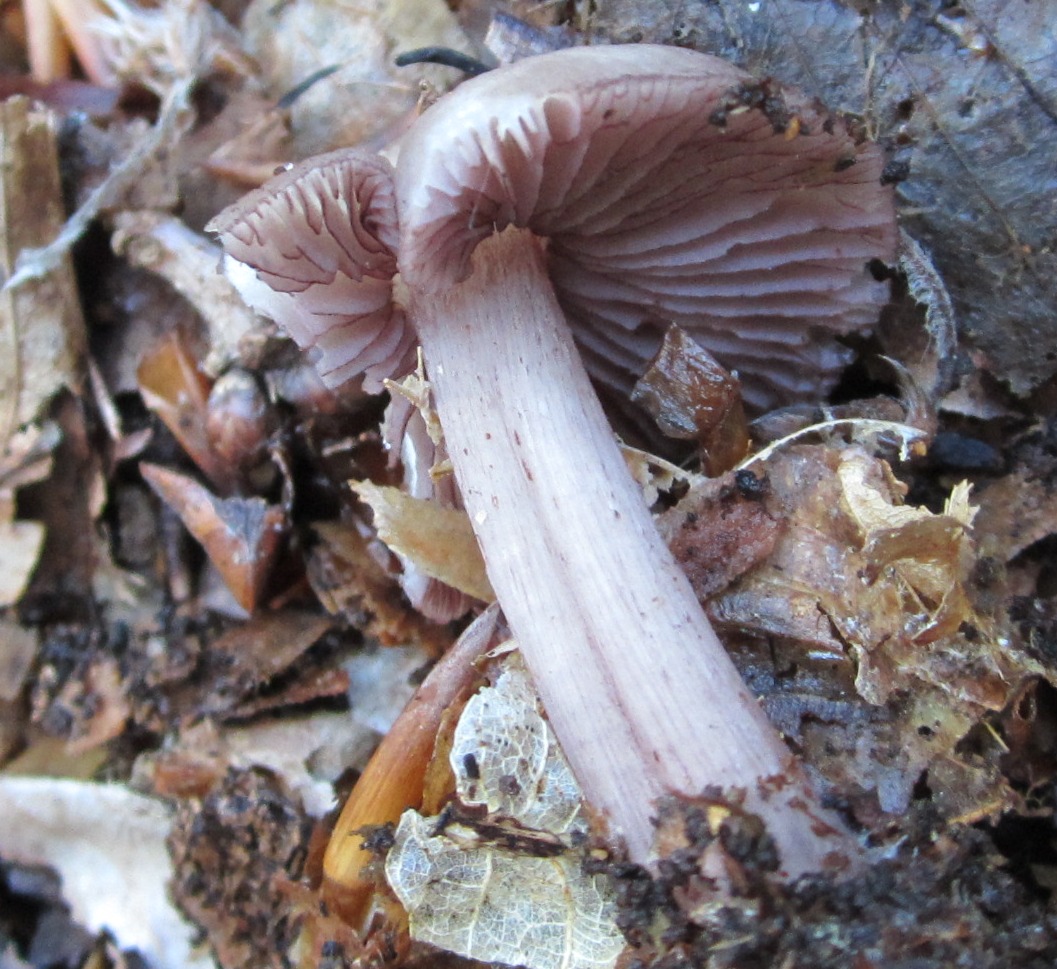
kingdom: Fungi
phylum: Basidiomycota
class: Agaricomycetes
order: Agaricales
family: Mycenaceae
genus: Mycena
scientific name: Mycena pelianthina
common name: mørkbladet huesvamp
